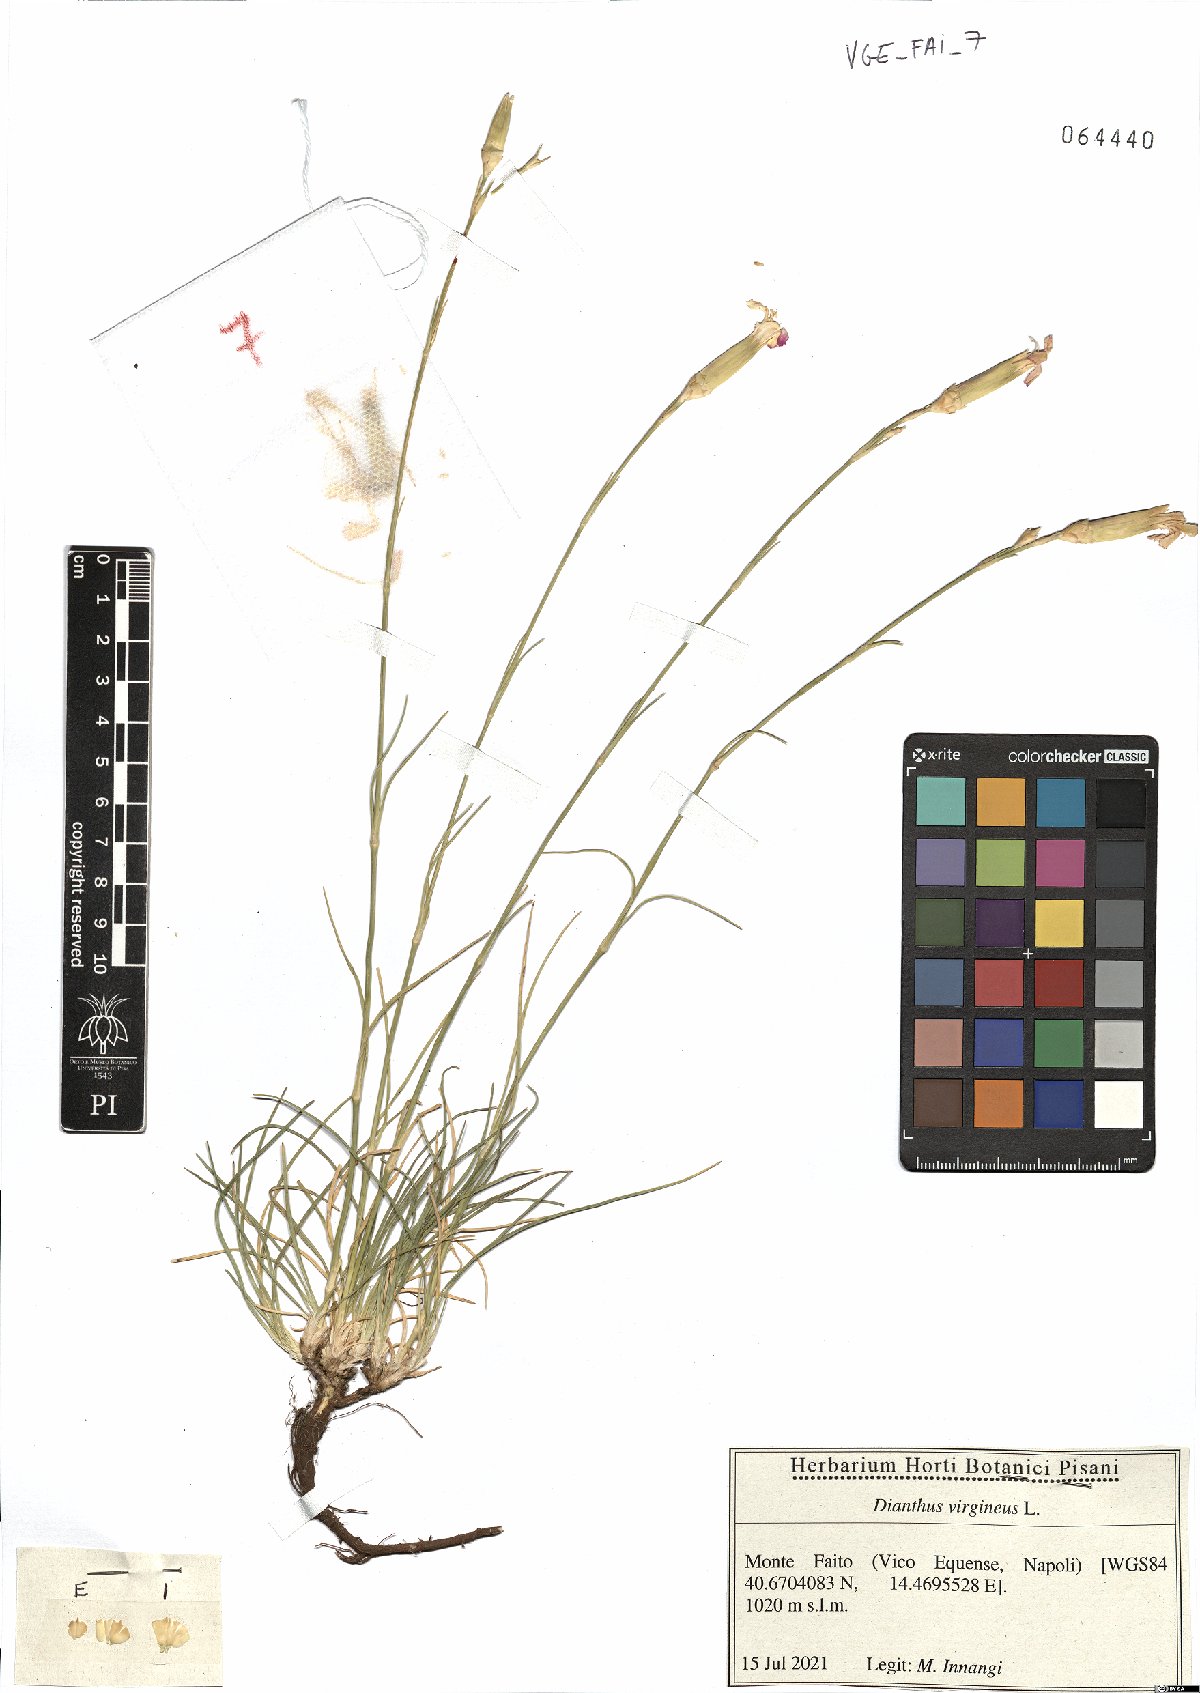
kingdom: Plantae
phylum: Tracheophyta
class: Magnoliopsida
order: Caryophyllales
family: Caryophyllaceae
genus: Dianthus
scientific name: Dianthus virgineus
